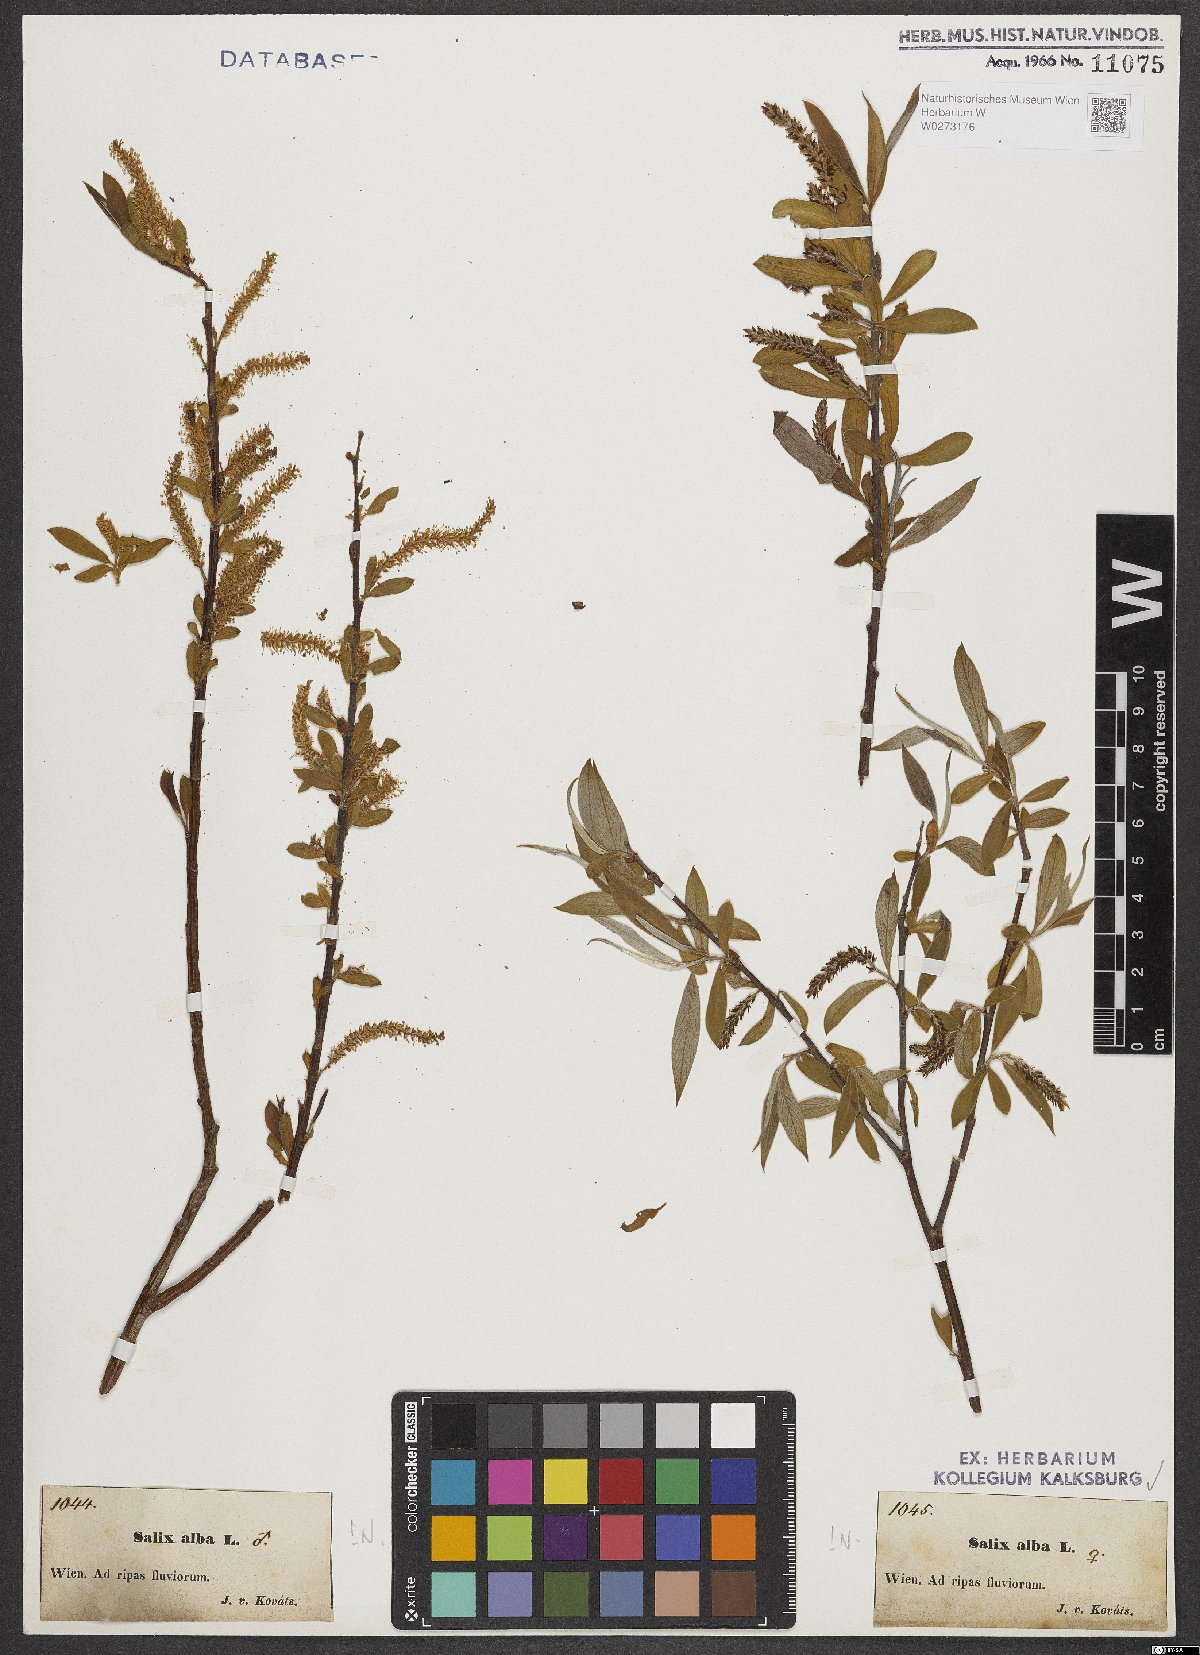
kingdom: Plantae
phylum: Tracheophyta
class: Magnoliopsida
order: Malpighiales
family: Salicaceae
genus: Salix
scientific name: Salix alba
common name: White willow
